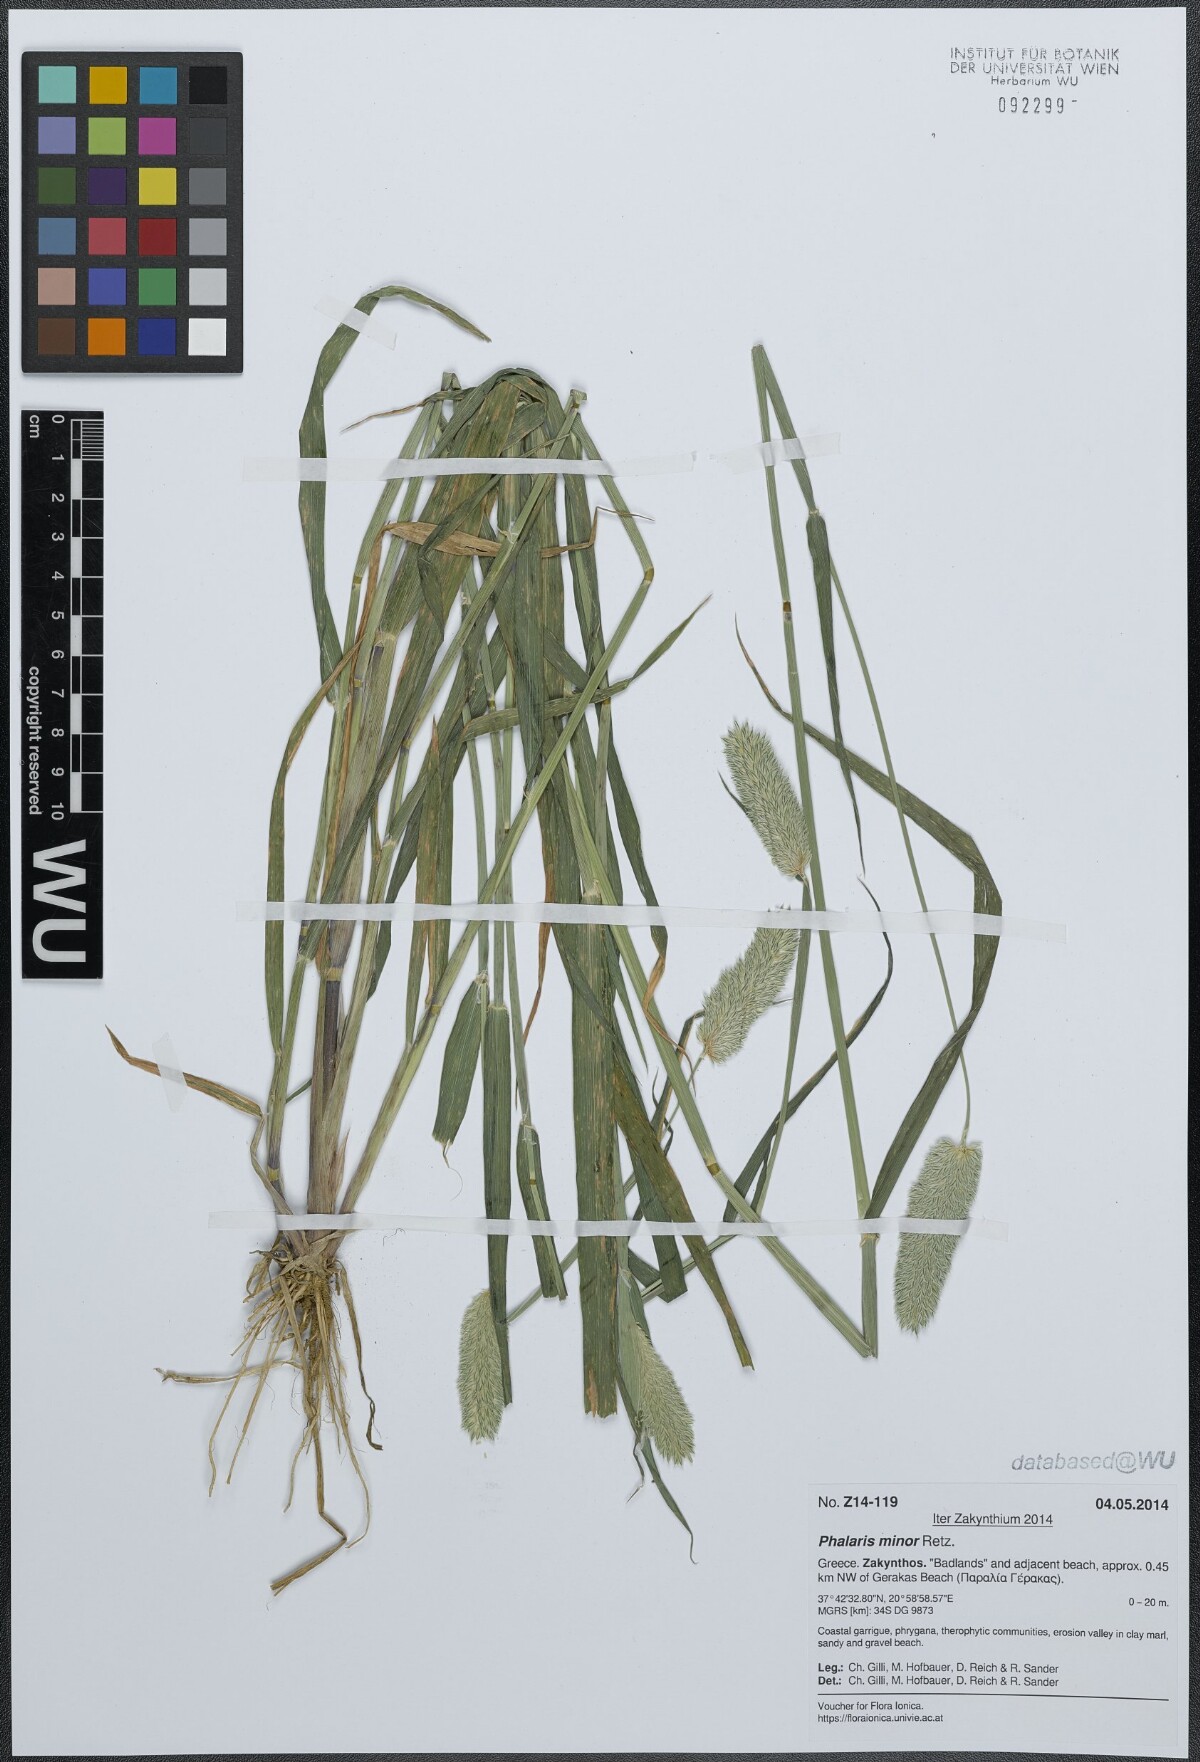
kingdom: Plantae
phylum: Tracheophyta
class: Liliopsida
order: Poales
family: Poaceae
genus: Phalaris
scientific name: Phalaris minor
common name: Littleseed canarygrass
